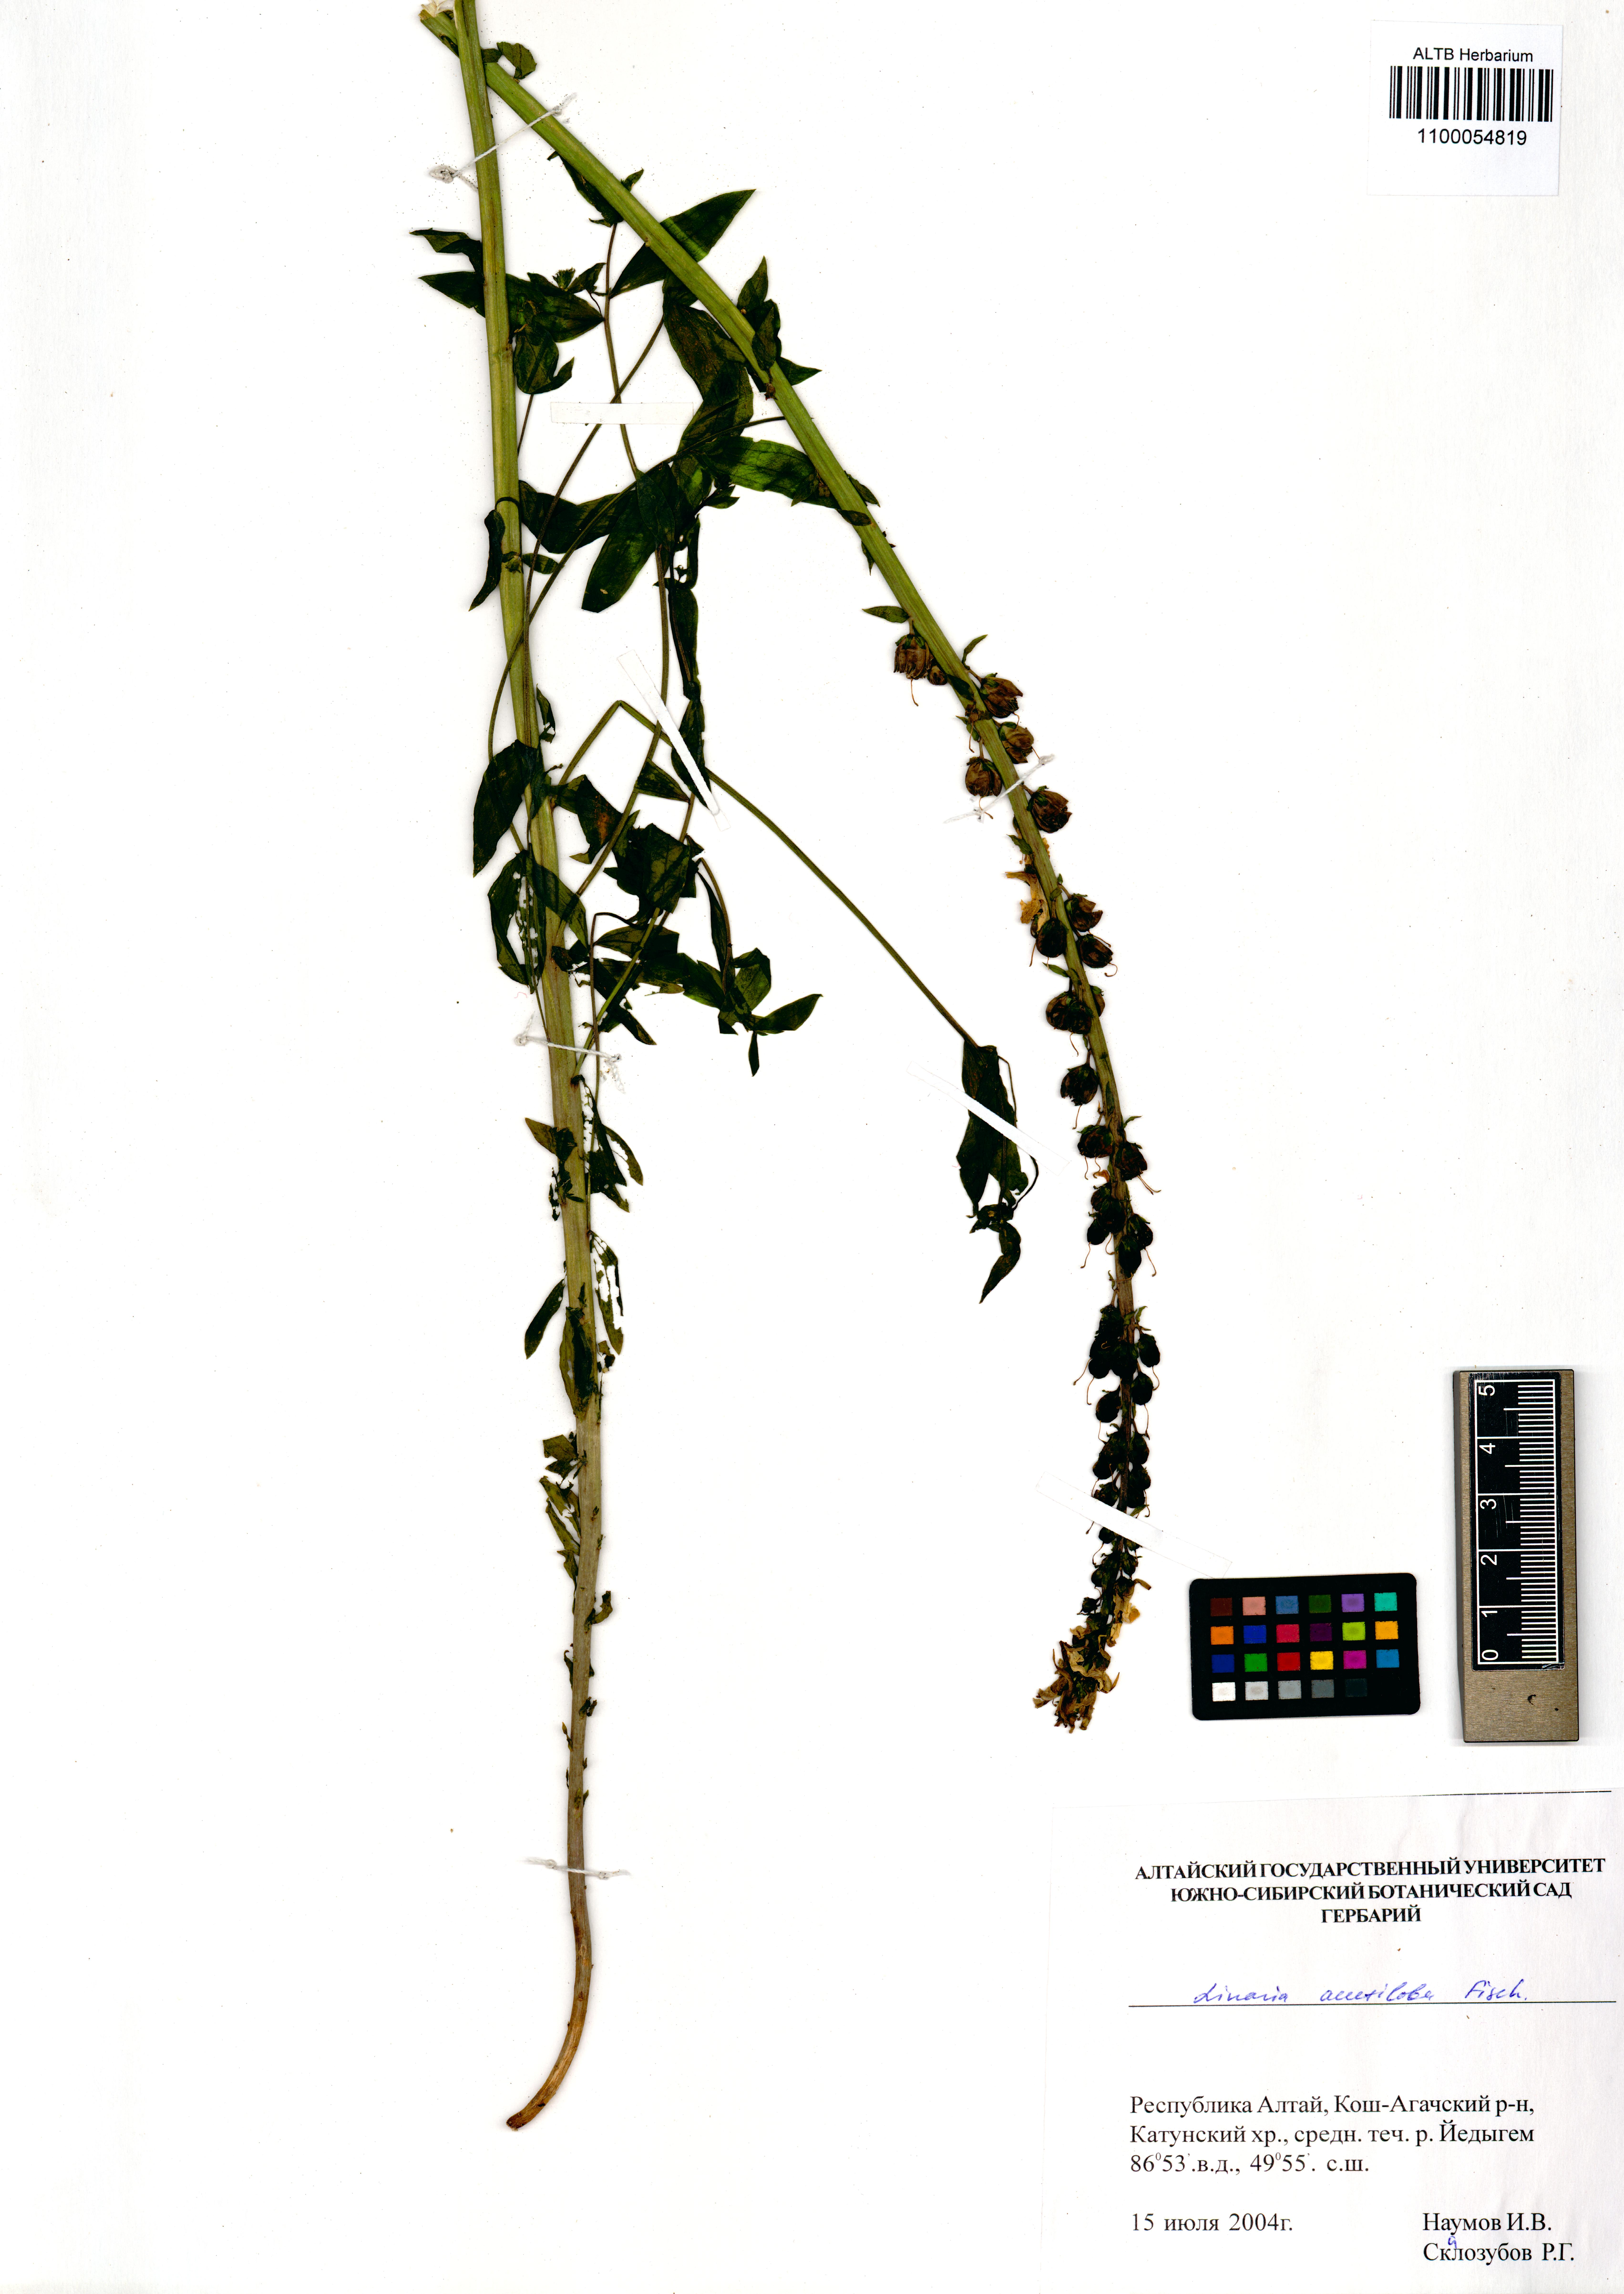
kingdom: Plantae
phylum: Tracheophyta
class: Magnoliopsida
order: Lamiales
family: Plantaginaceae
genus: Linaria
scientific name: Linaria acutiloba
